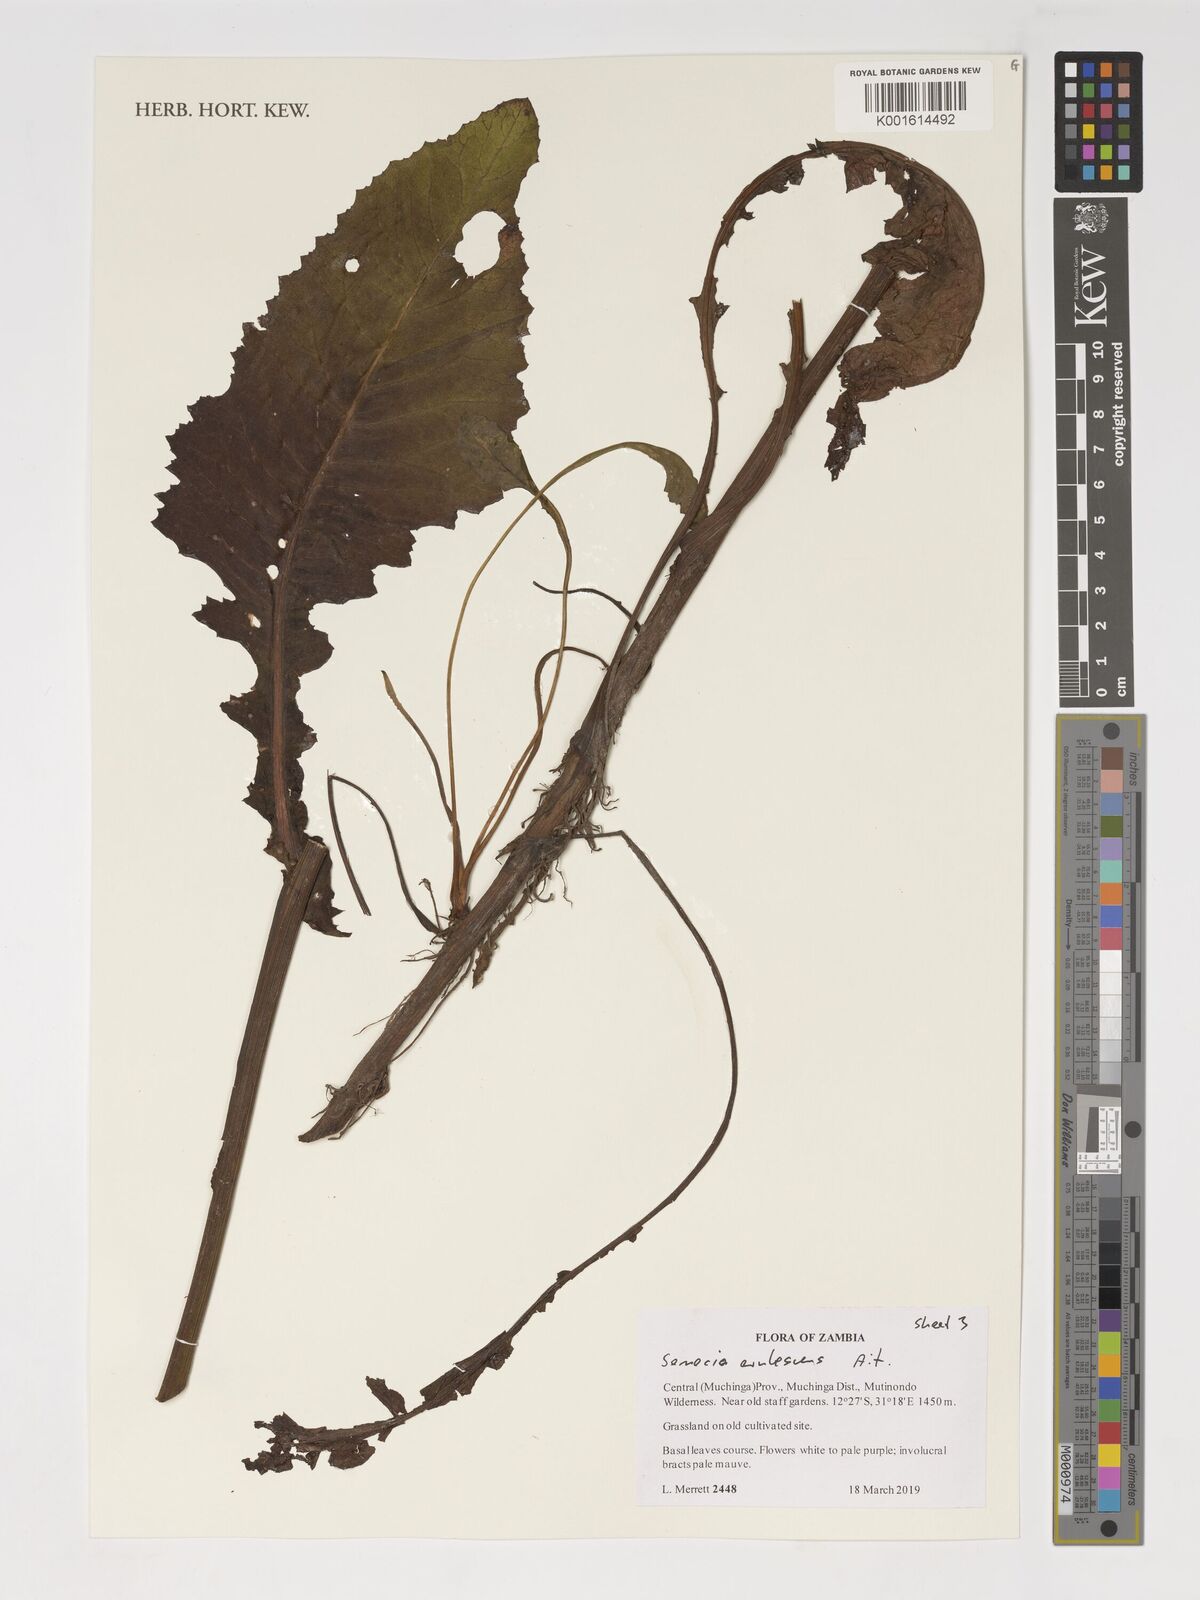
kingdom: Plantae
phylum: Tracheophyta
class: Magnoliopsida
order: Asterales
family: Asteraceae
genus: Senecio
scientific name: Senecio erubescens
